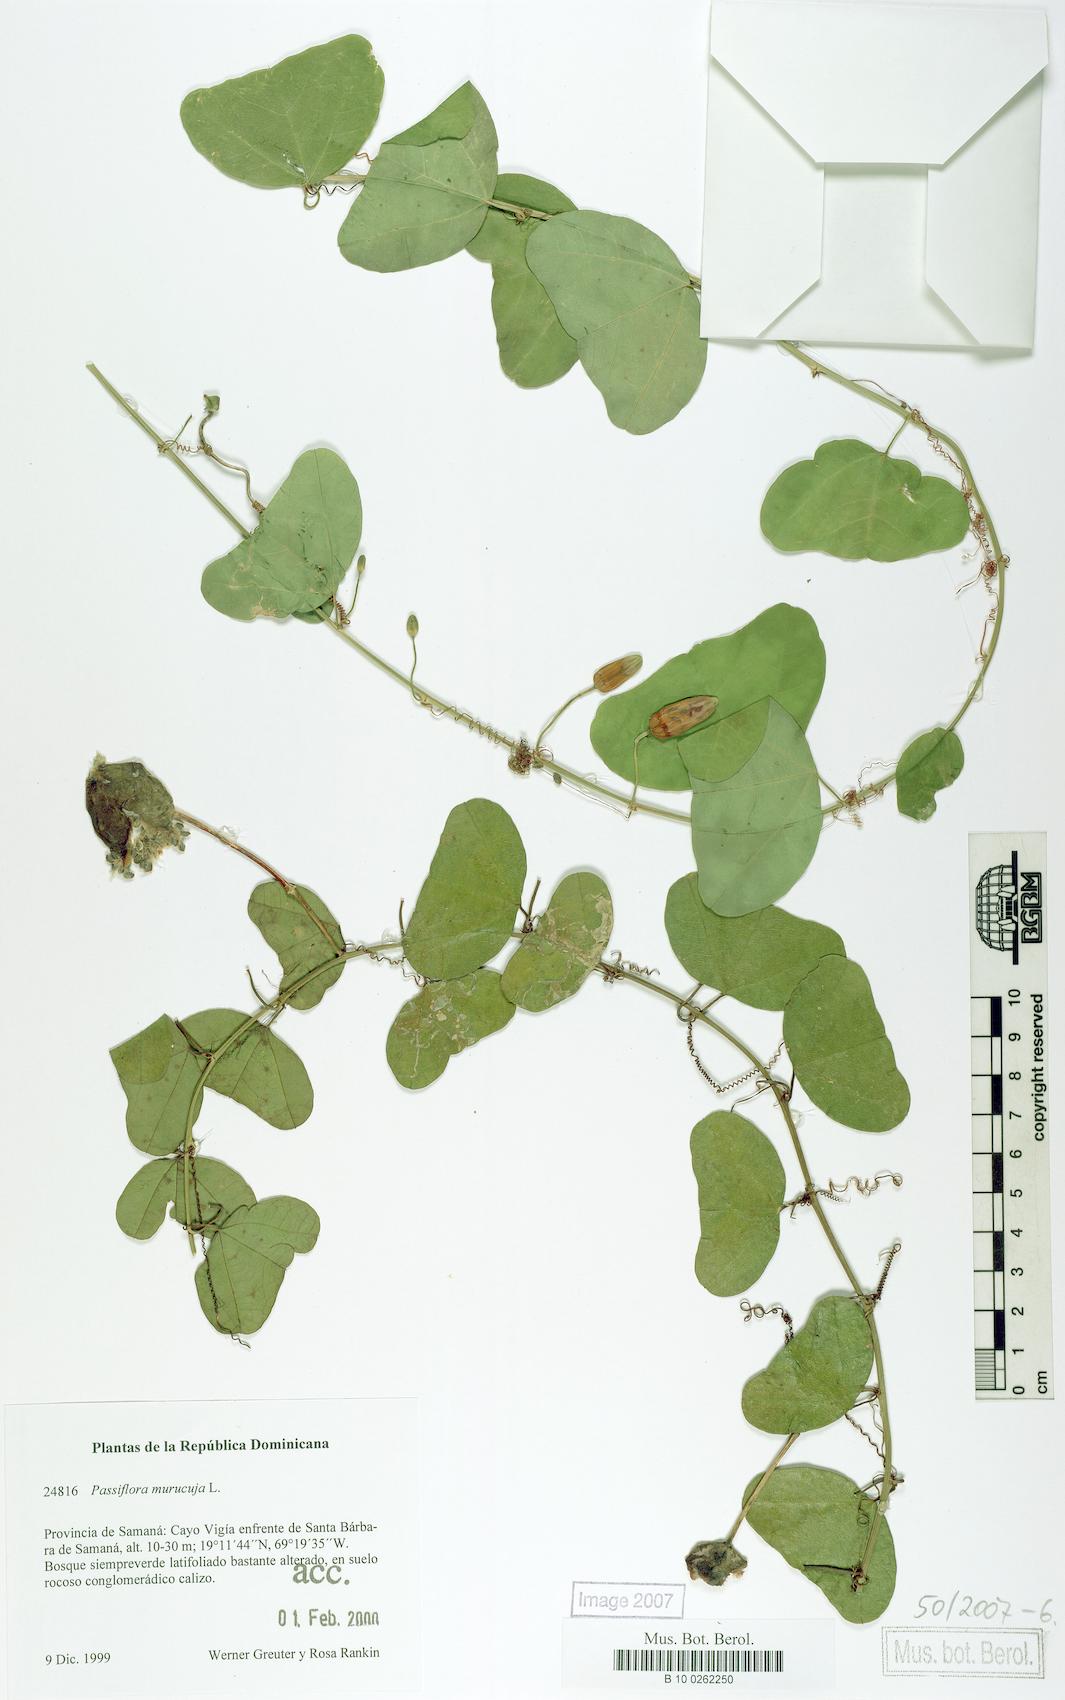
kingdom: Plantae
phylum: Tracheophyta
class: Magnoliopsida
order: Malpighiales
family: Passifloraceae
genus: Passiflora
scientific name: Passiflora murucuja
